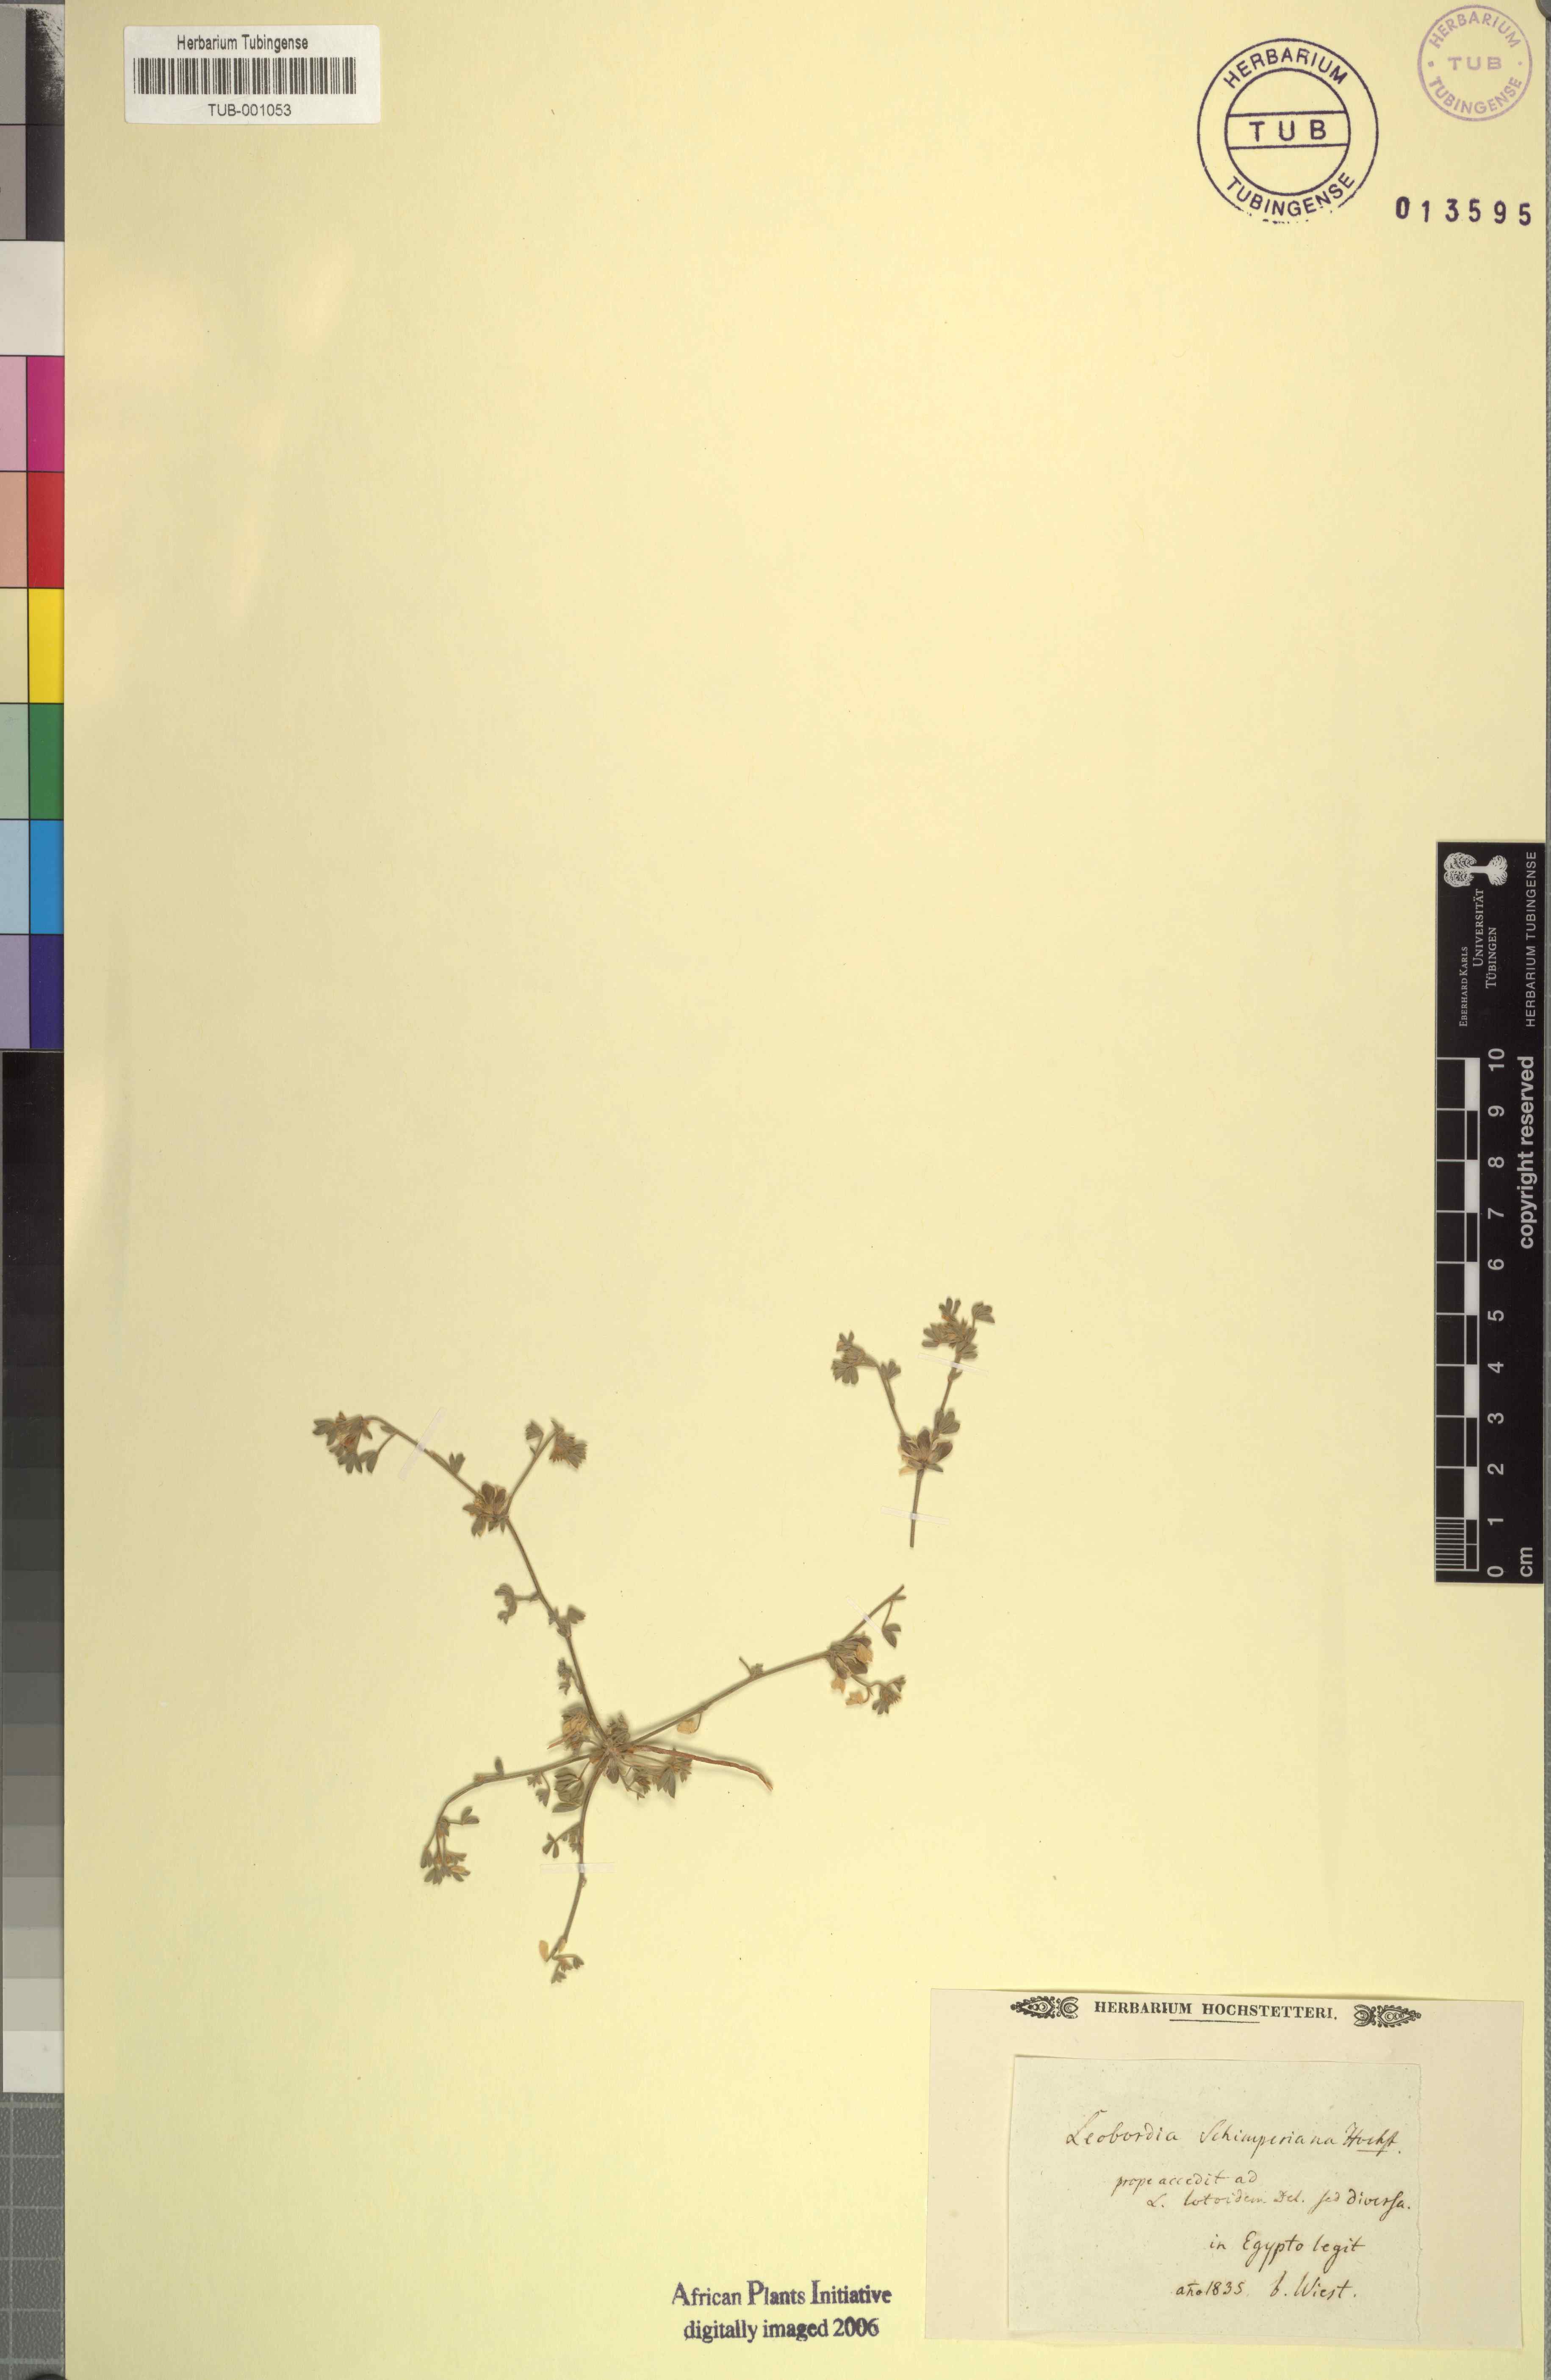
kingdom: Plantae
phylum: Tracheophyta
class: Magnoliopsida
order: Fabales
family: Fabaceae
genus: Leobordea
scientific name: Leobordea platycarpa
